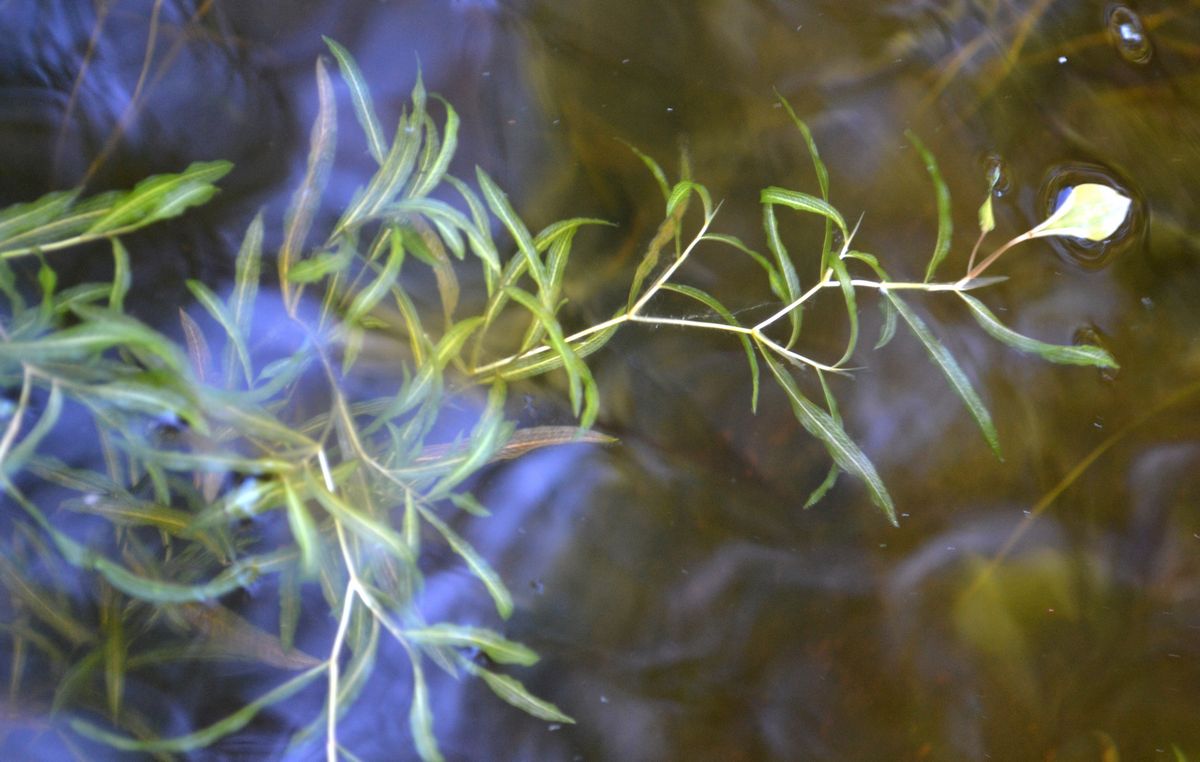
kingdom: Plantae
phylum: Tracheophyta
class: Liliopsida
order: Alismatales
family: Potamogetonaceae
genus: Potamogeton
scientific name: Potamogeton gramineus
